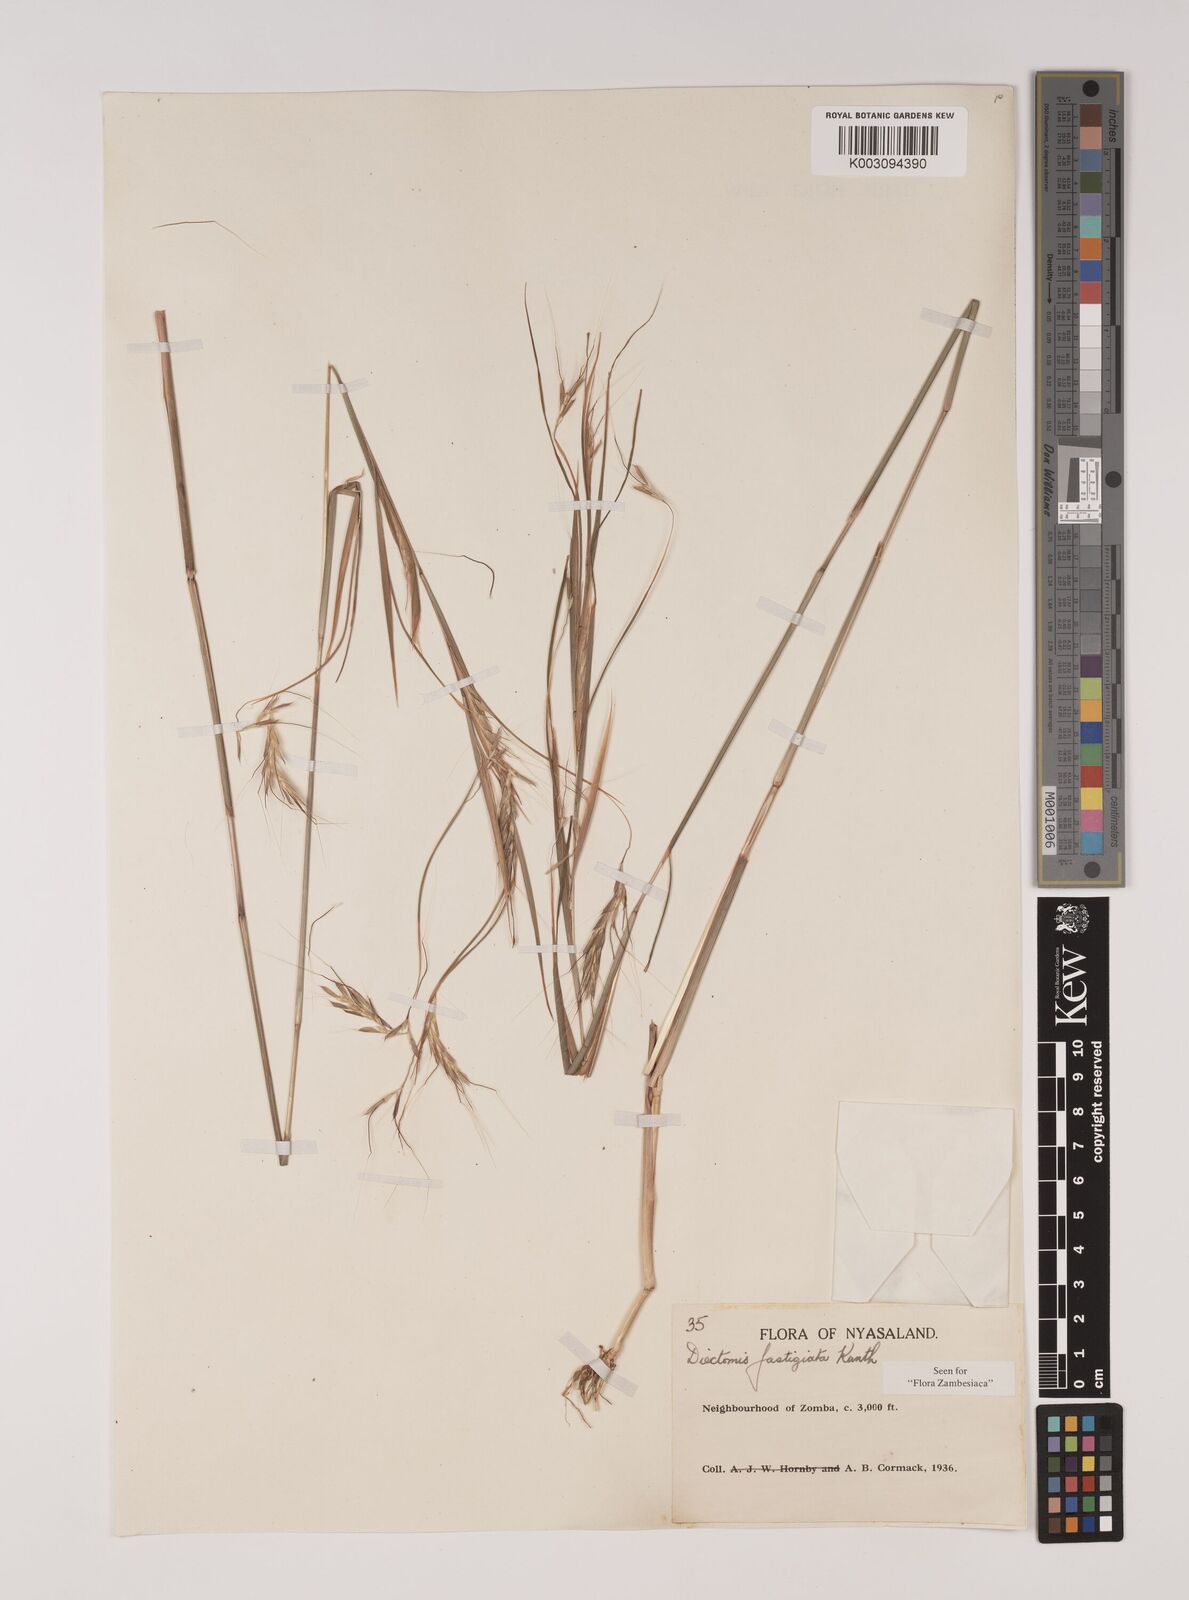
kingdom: Plantae
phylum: Tracheophyta
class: Liliopsida
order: Poales
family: Poaceae
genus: Andropogon
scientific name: Andropogon festuciformis
